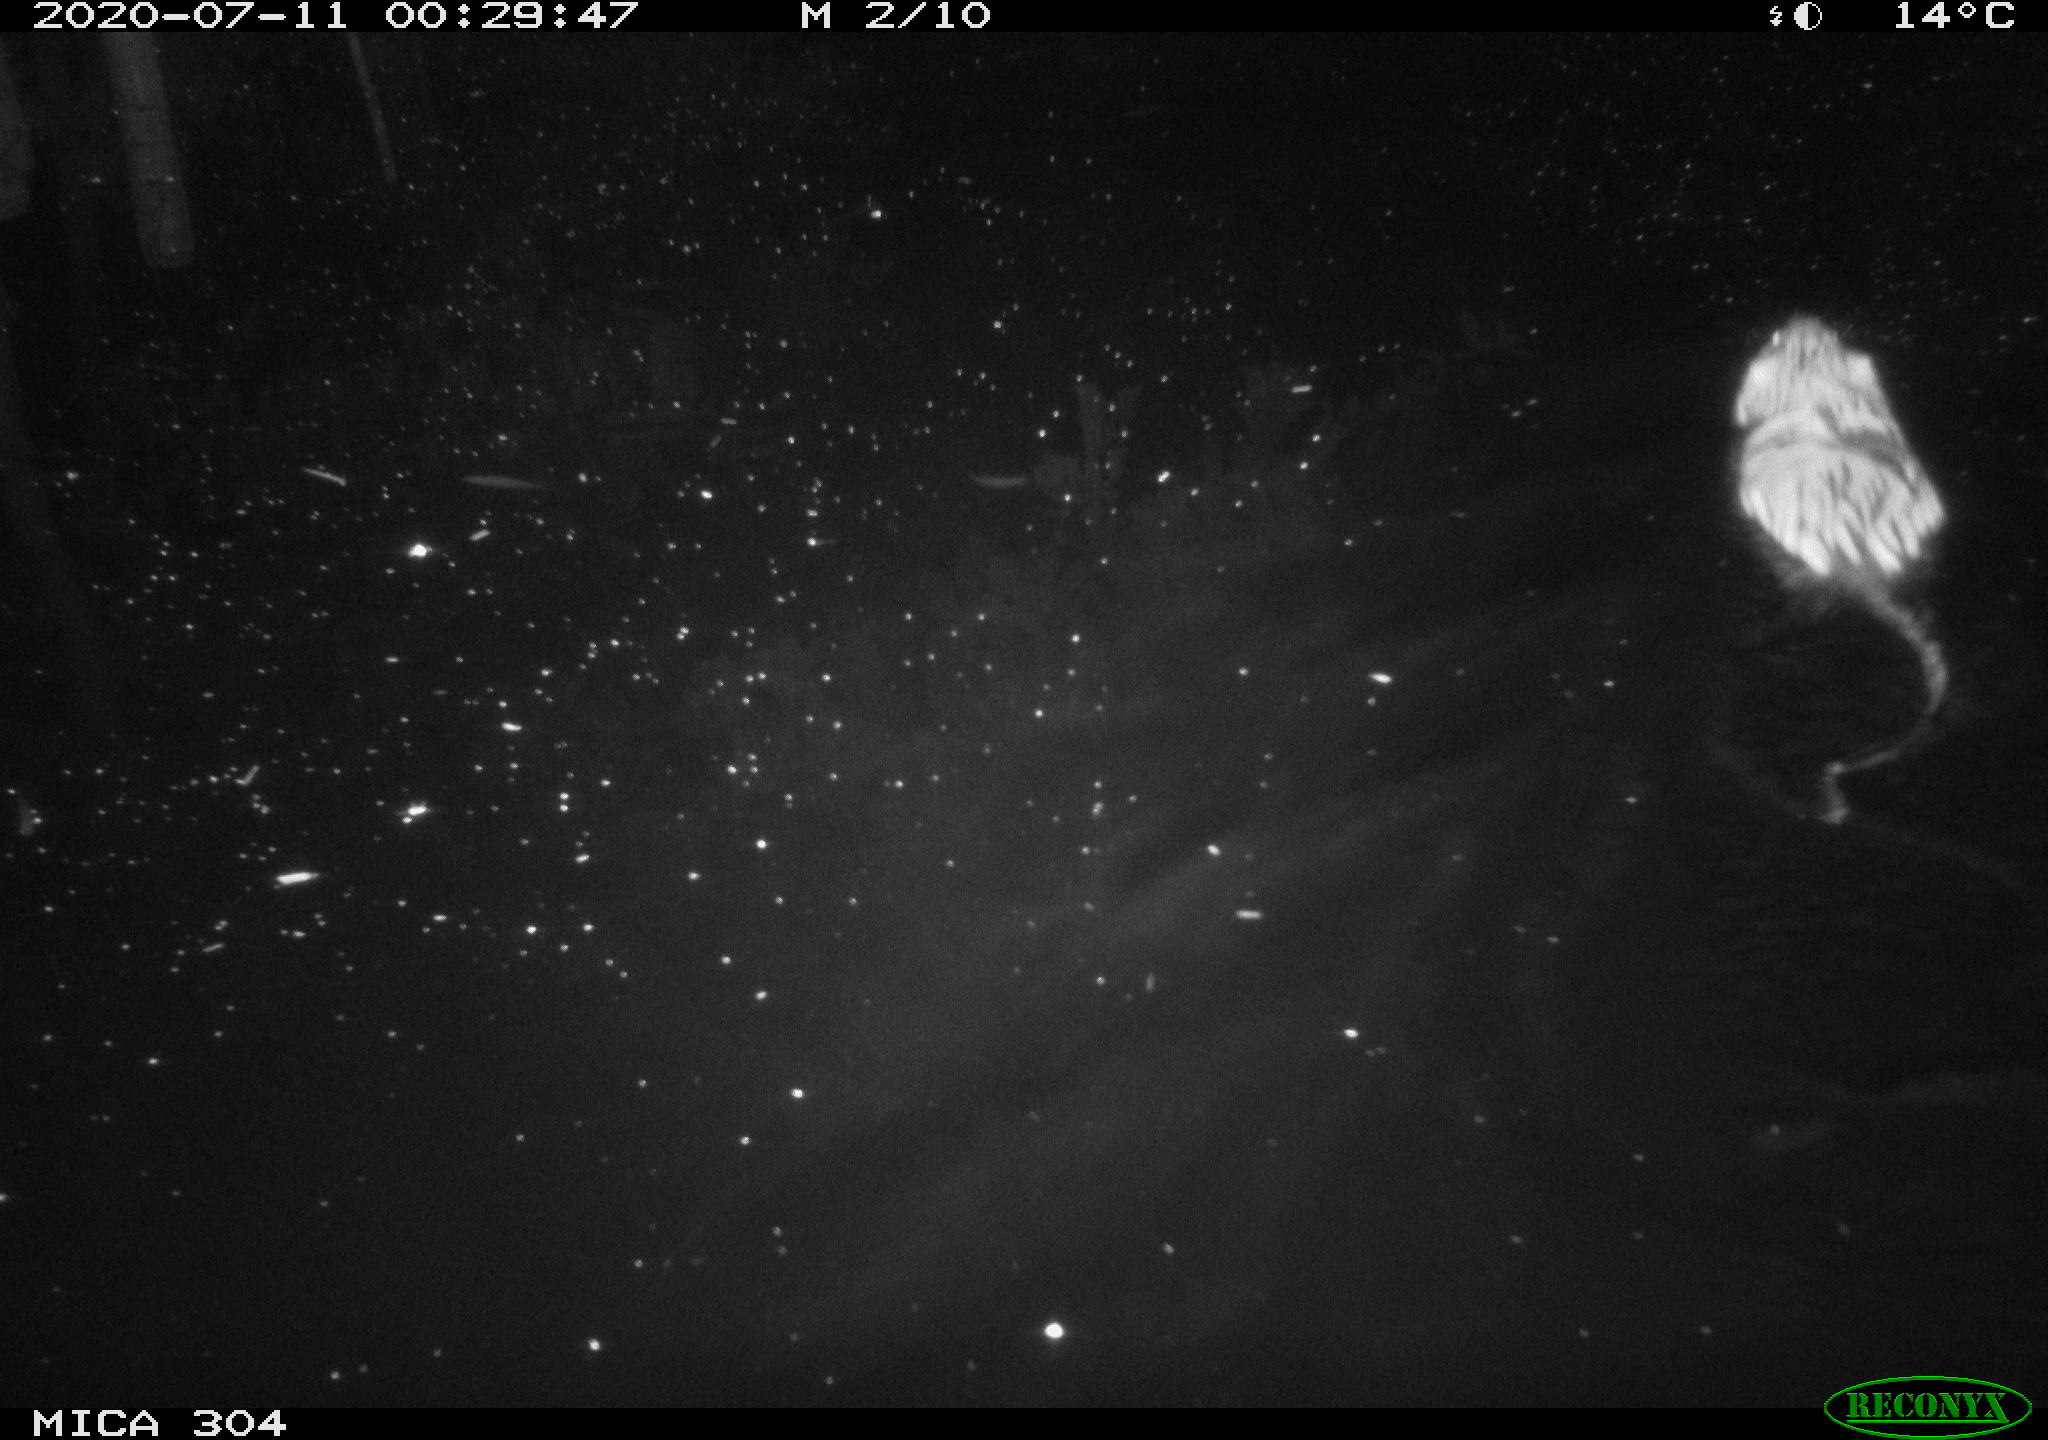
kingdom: Animalia
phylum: Chordata
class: Mammalia
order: Rodentia
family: Cricetidae
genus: Ondatra
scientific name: Ondatra zibethicus
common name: Muskrat
